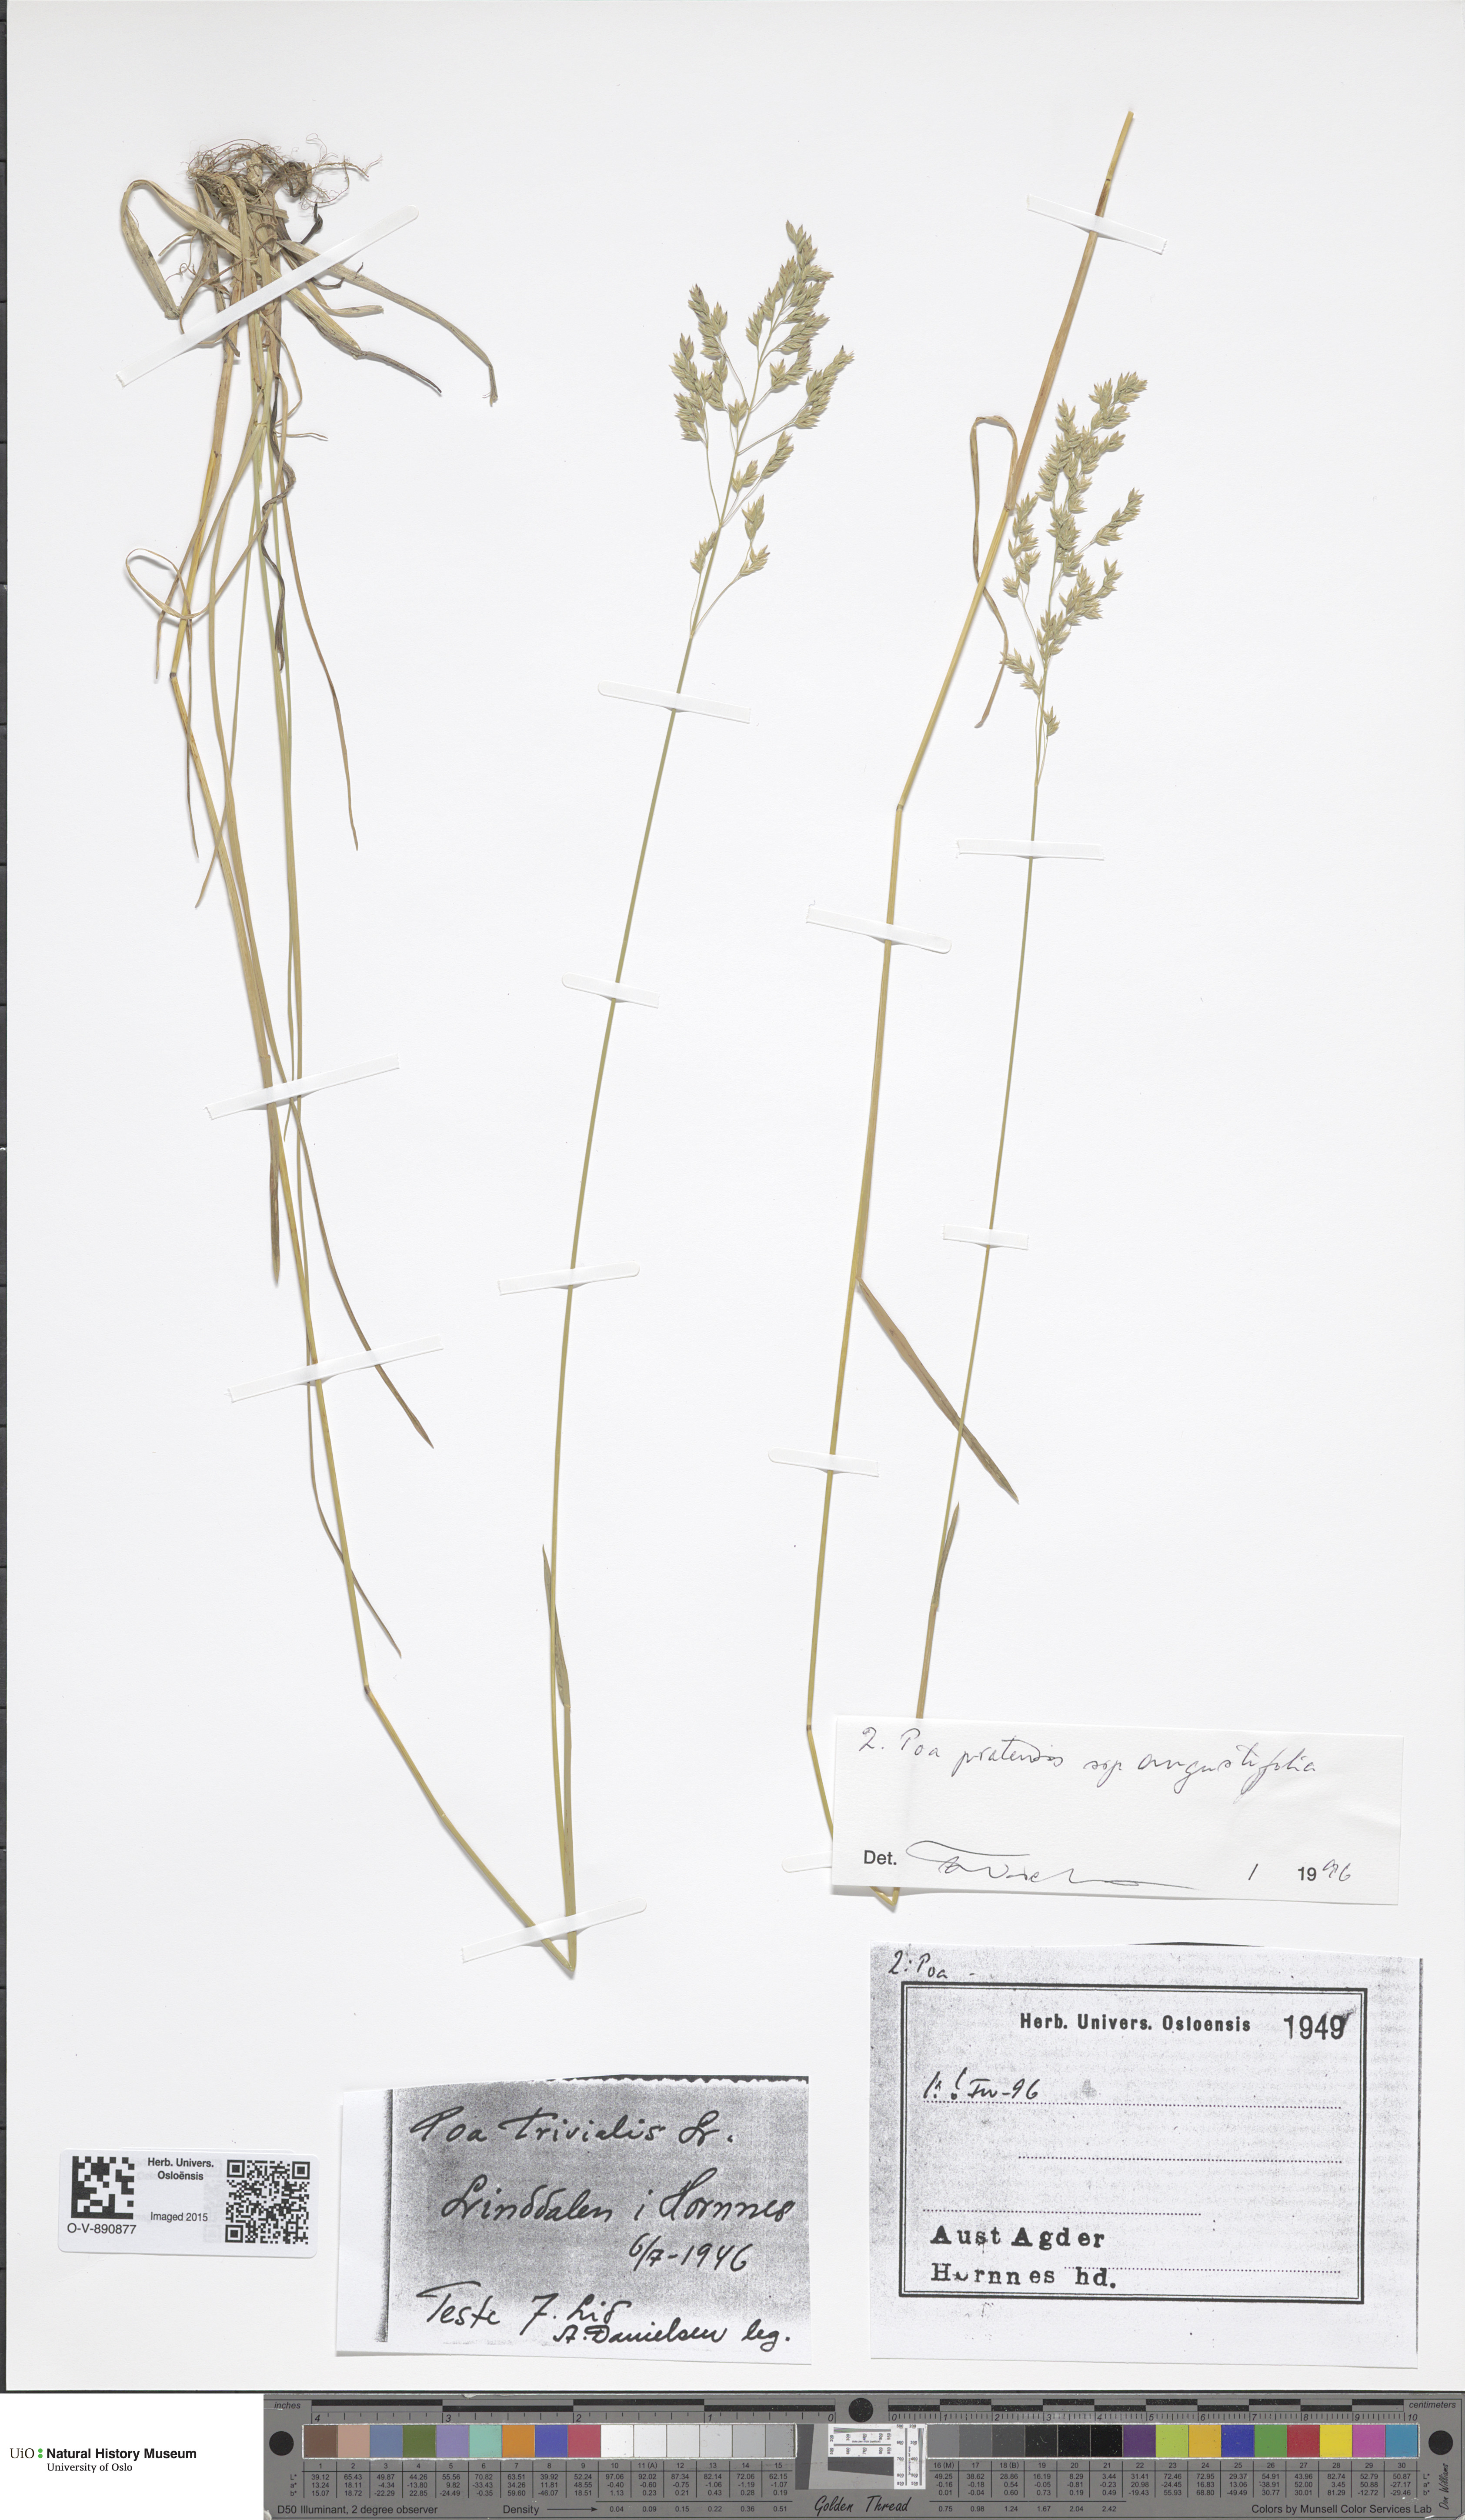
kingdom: Plantae
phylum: Tracheophyta
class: Liliopsida
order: Poales
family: Poaceae
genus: Poa
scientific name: Poa angustifolia
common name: Narrow-leaved meadow-grass
